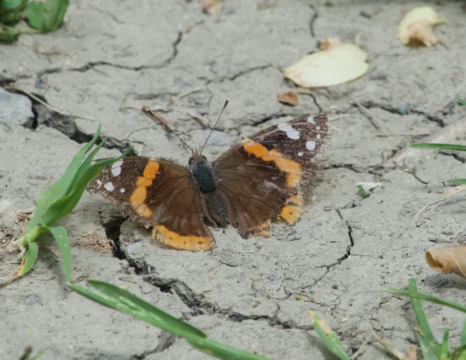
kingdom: Animalia
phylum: Arthropoda
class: Insecta
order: Lepidoptera
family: Nymphalidae
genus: Vanessa
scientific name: Vanessa atalanta
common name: Red Admiral
